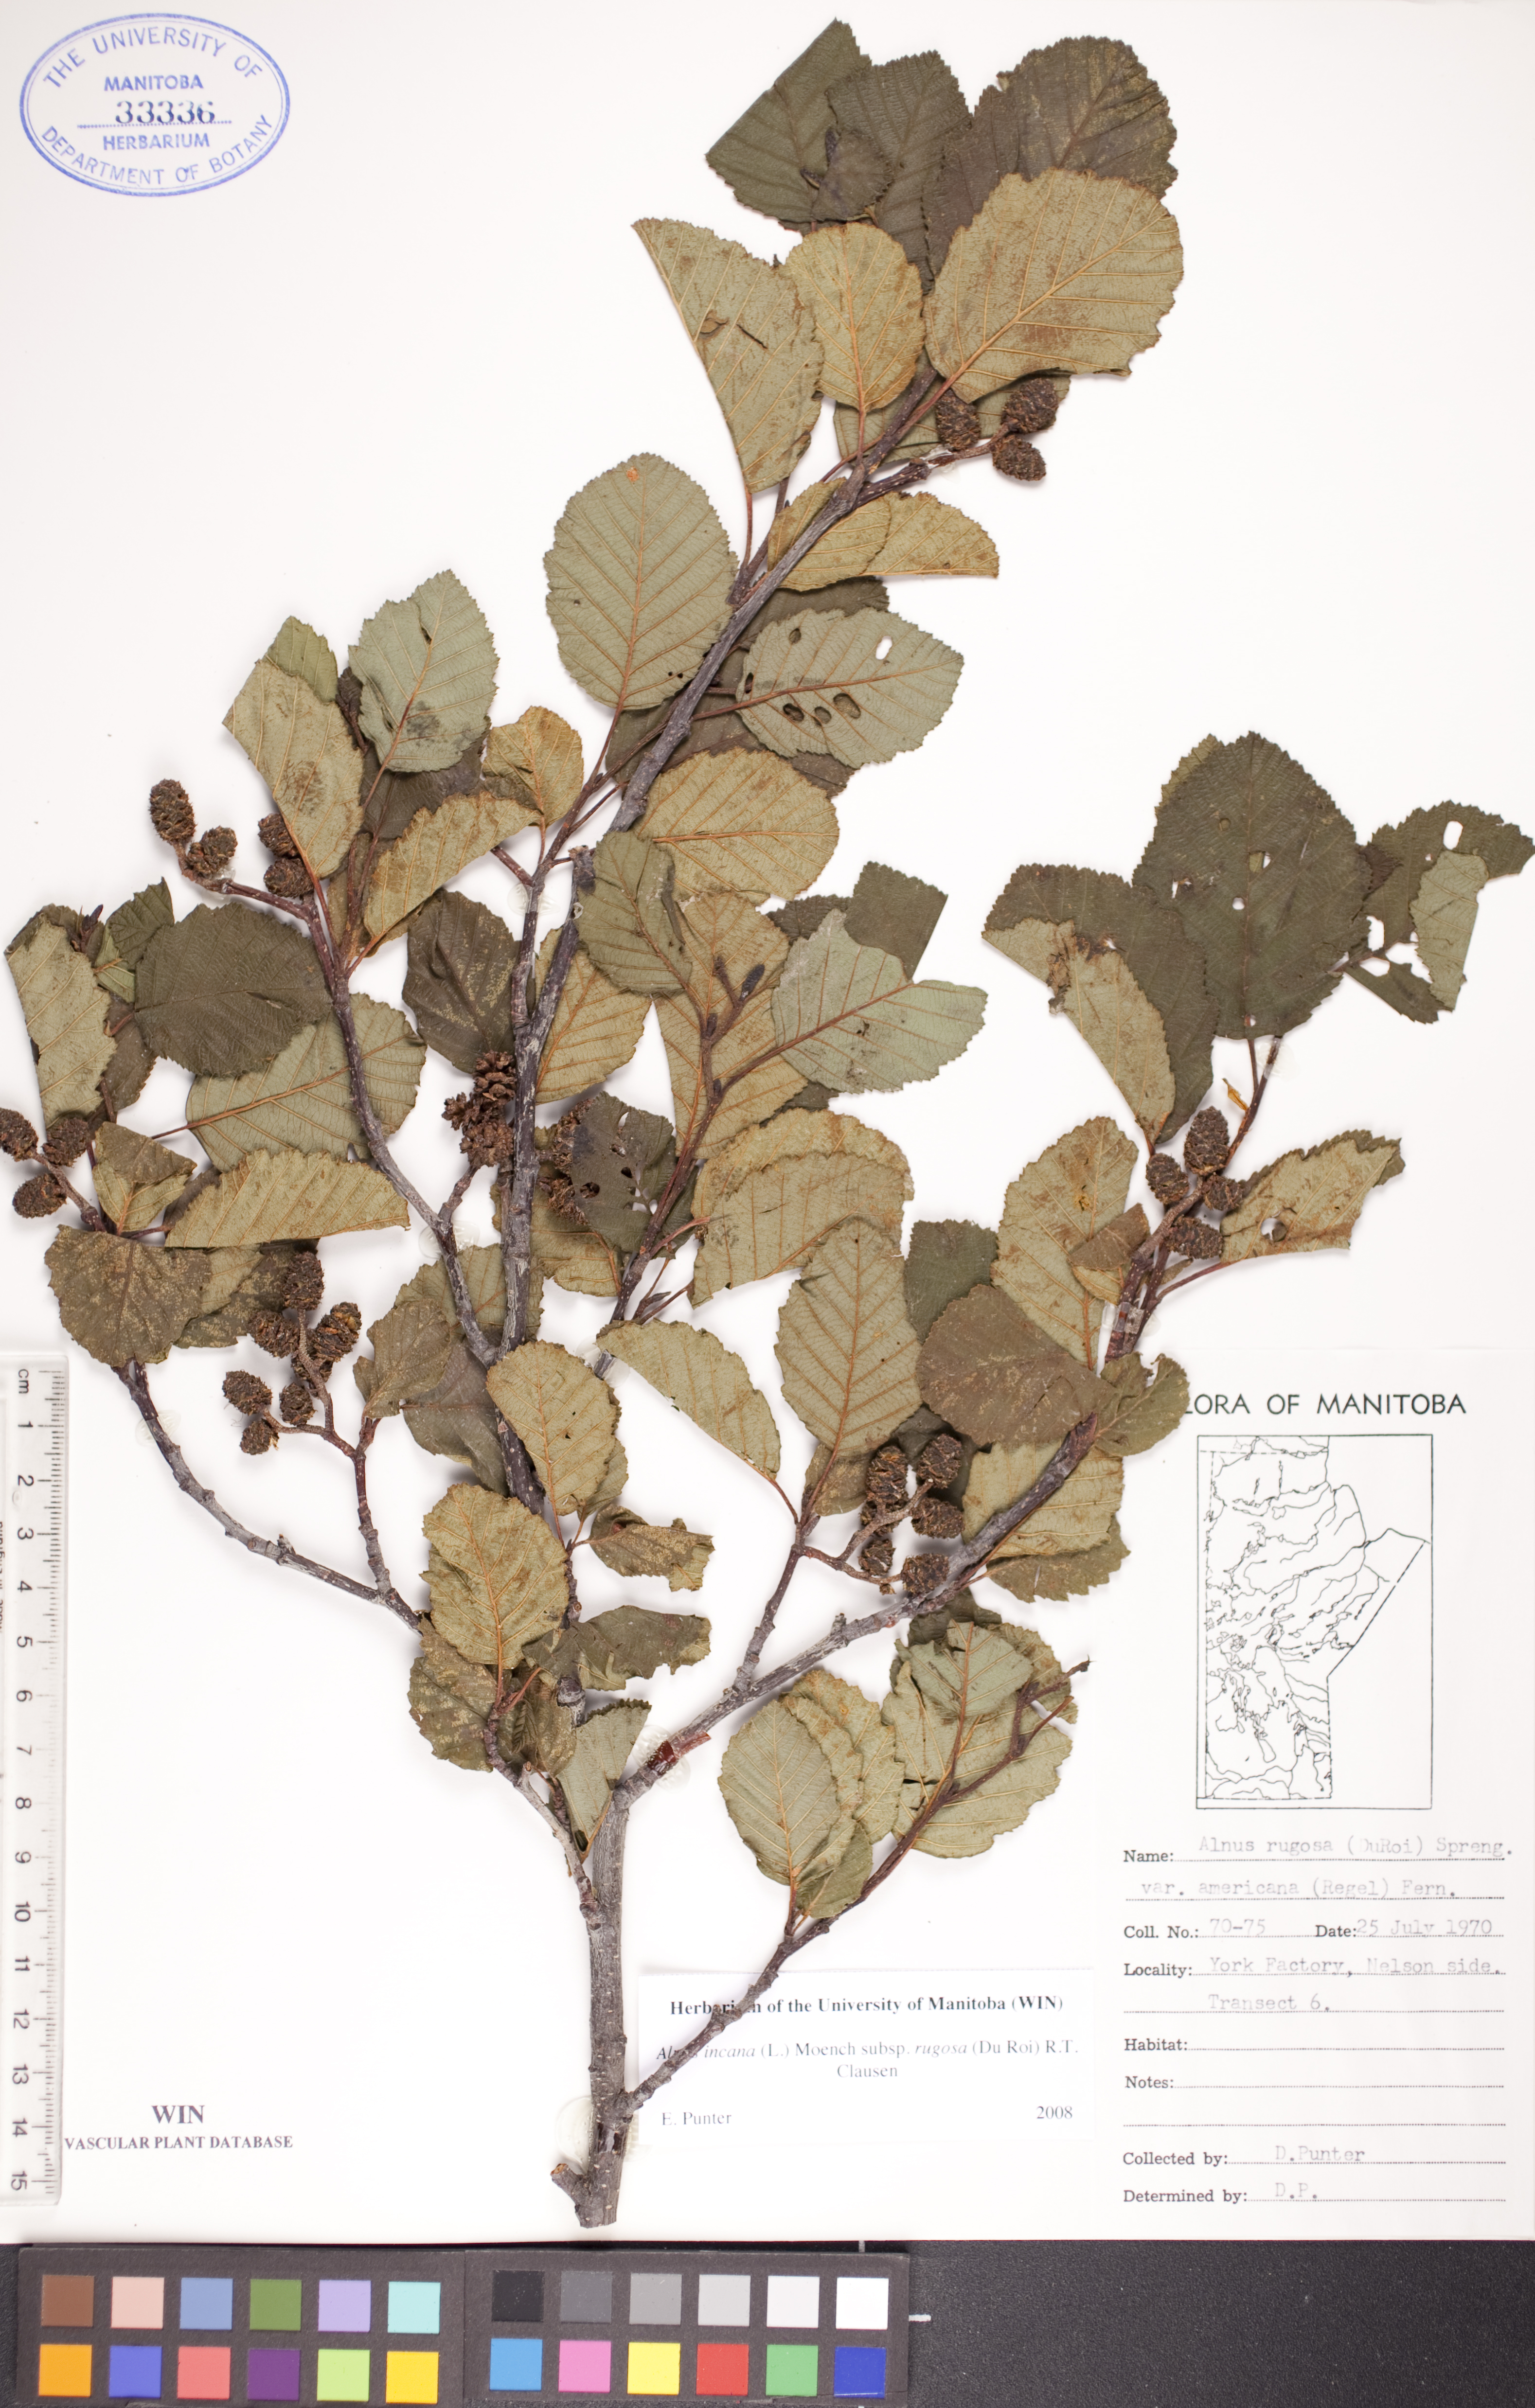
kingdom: Plantae
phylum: Tracheophyta
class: Magnoliopsida
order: Fagales
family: Betulaceae
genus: Alnus
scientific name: Alnus incana
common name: Grey alder
